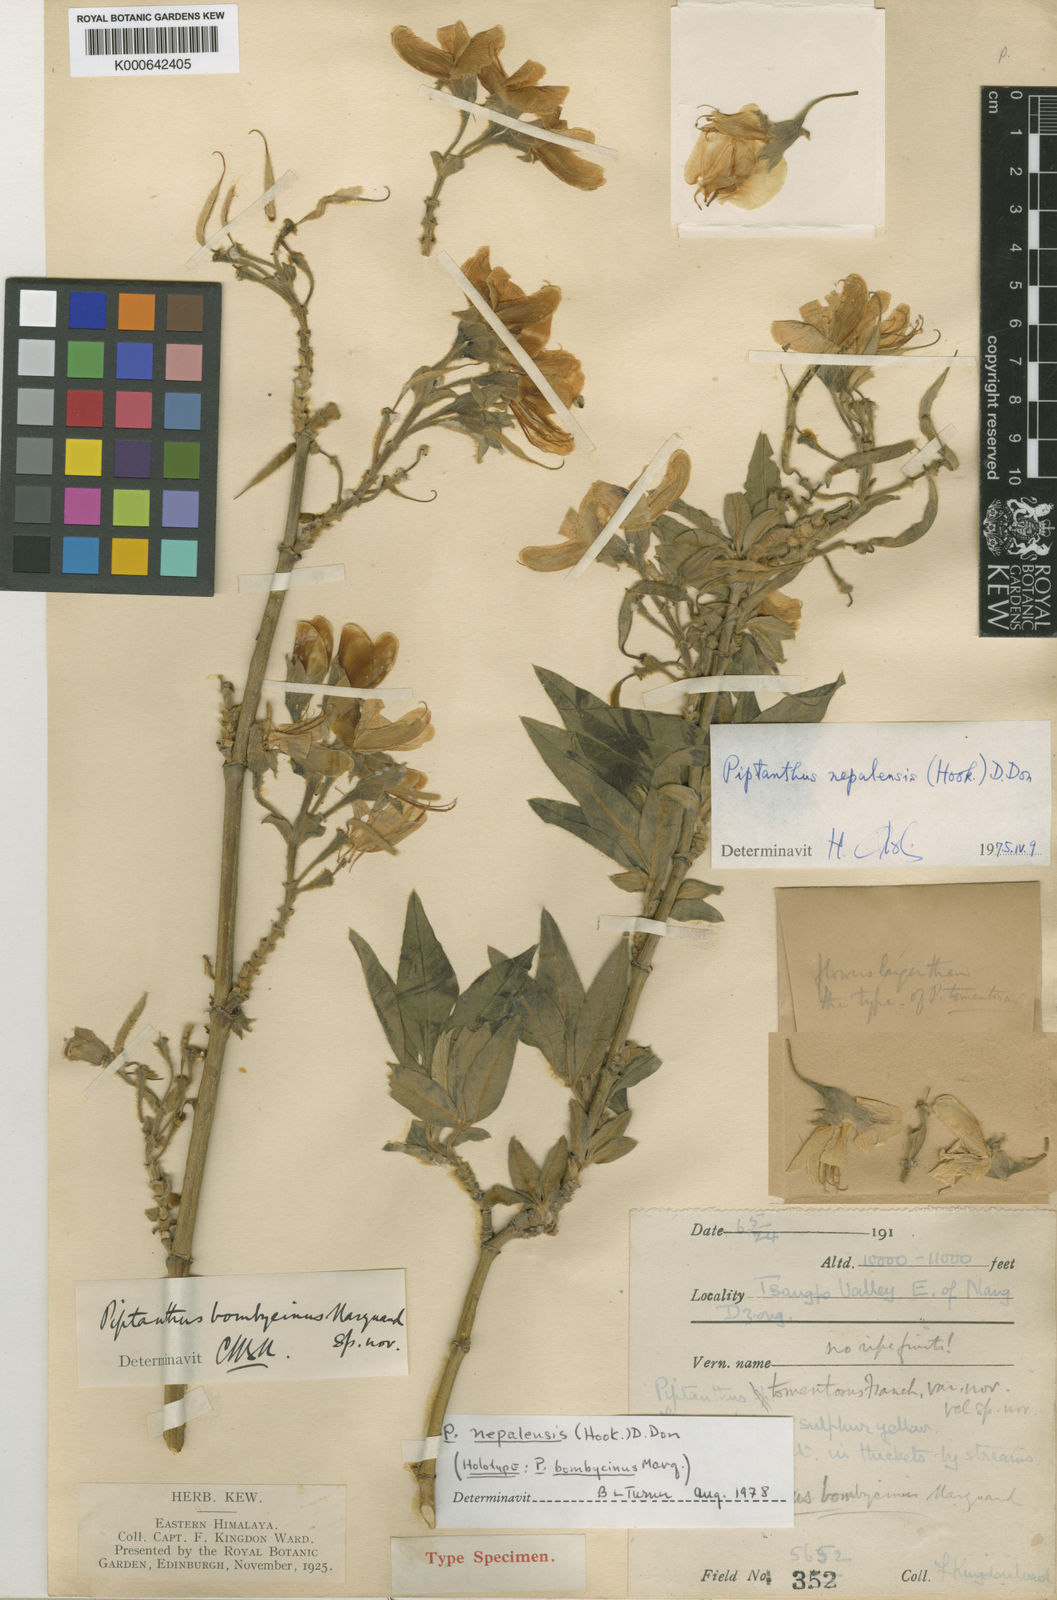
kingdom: Plantae
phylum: Tracheophyta
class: Magnoliopsida
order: Fabales
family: Fabaceae
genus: Piptanthus
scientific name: Piptanthus
